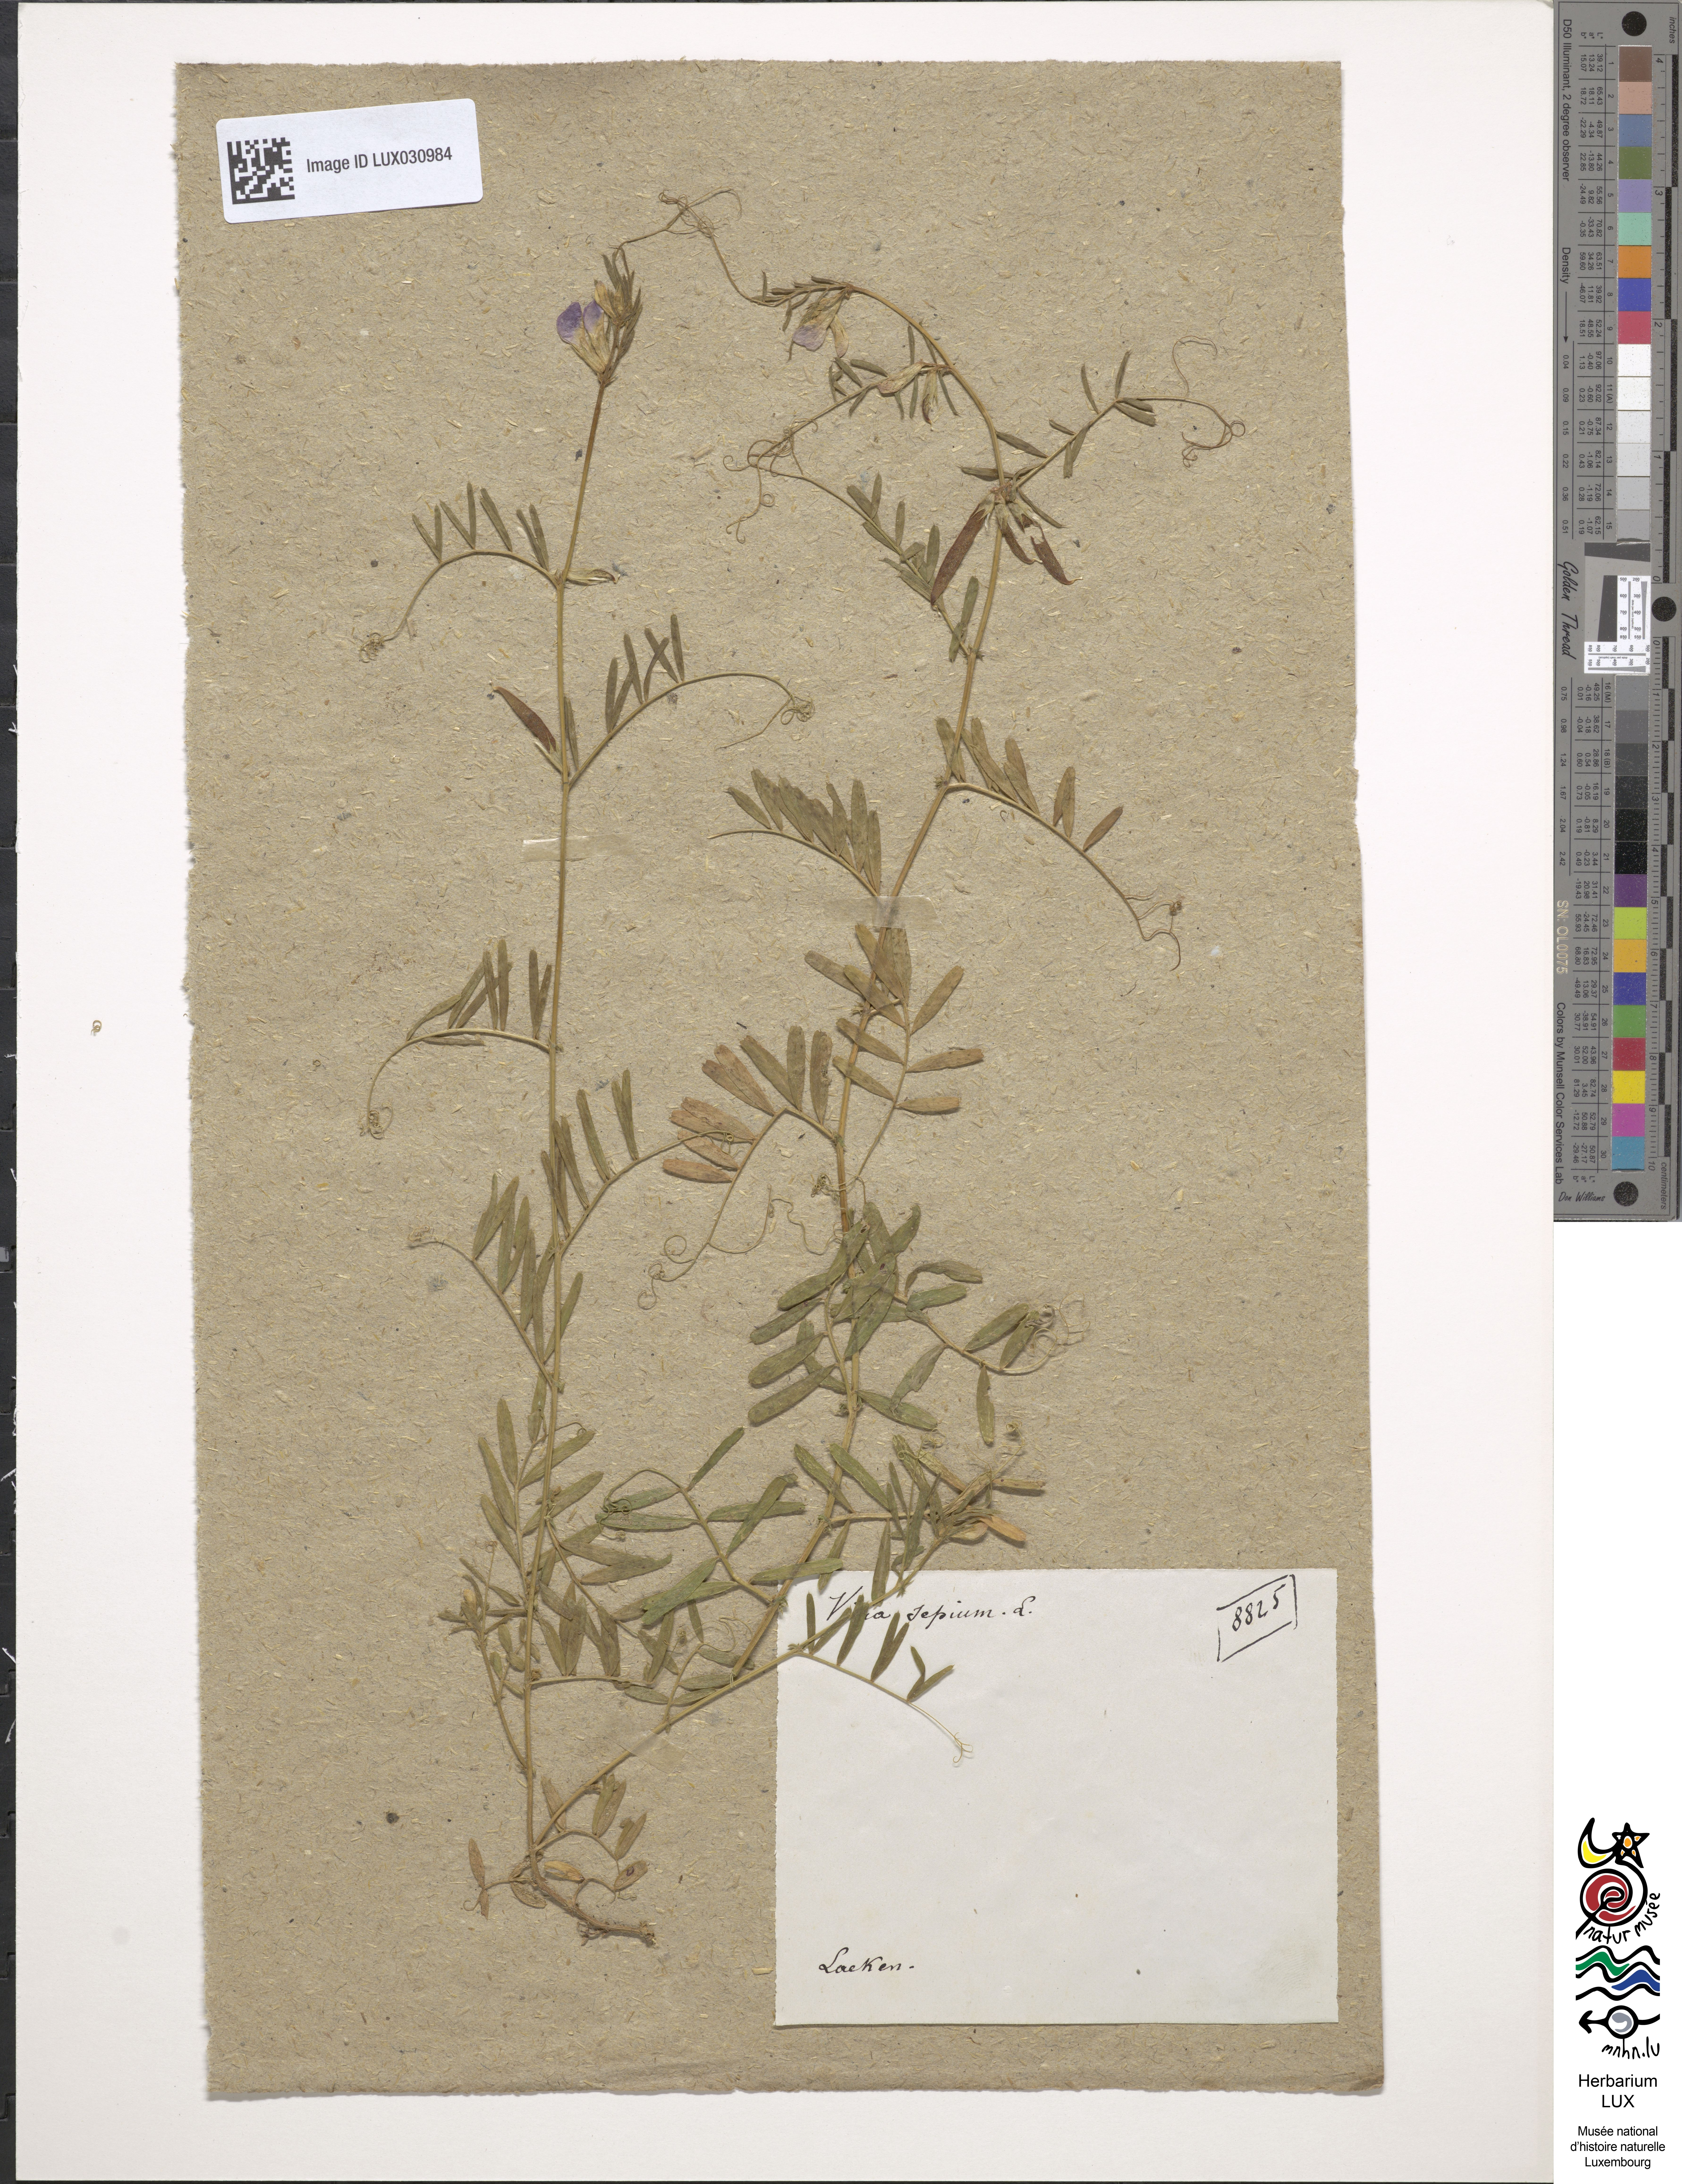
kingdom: Plantae
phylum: Tracheophyta
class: Magnoliopsida
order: Fabales
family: Fabaceae
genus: Vicia
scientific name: Vicia sepium
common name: Bush vetch
